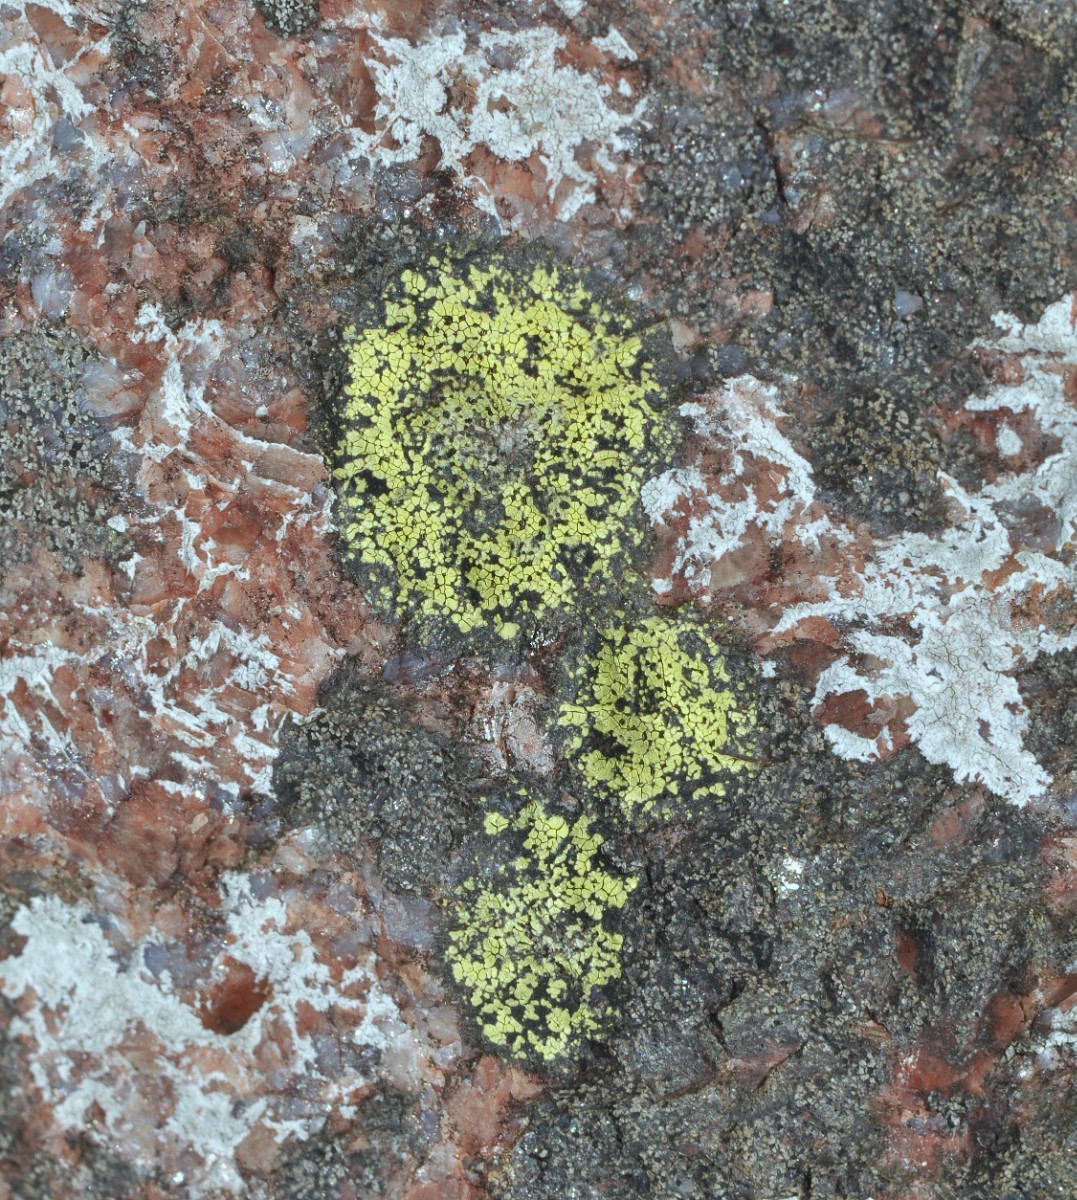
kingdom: Fungi
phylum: Ascomycota
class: Lecanoromycetes
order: Rhizocarpales
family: Rhizocarpaceae
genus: Rhizocarpon
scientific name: Rhizocarpon geographicum
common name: gulgrøn landkortlav
